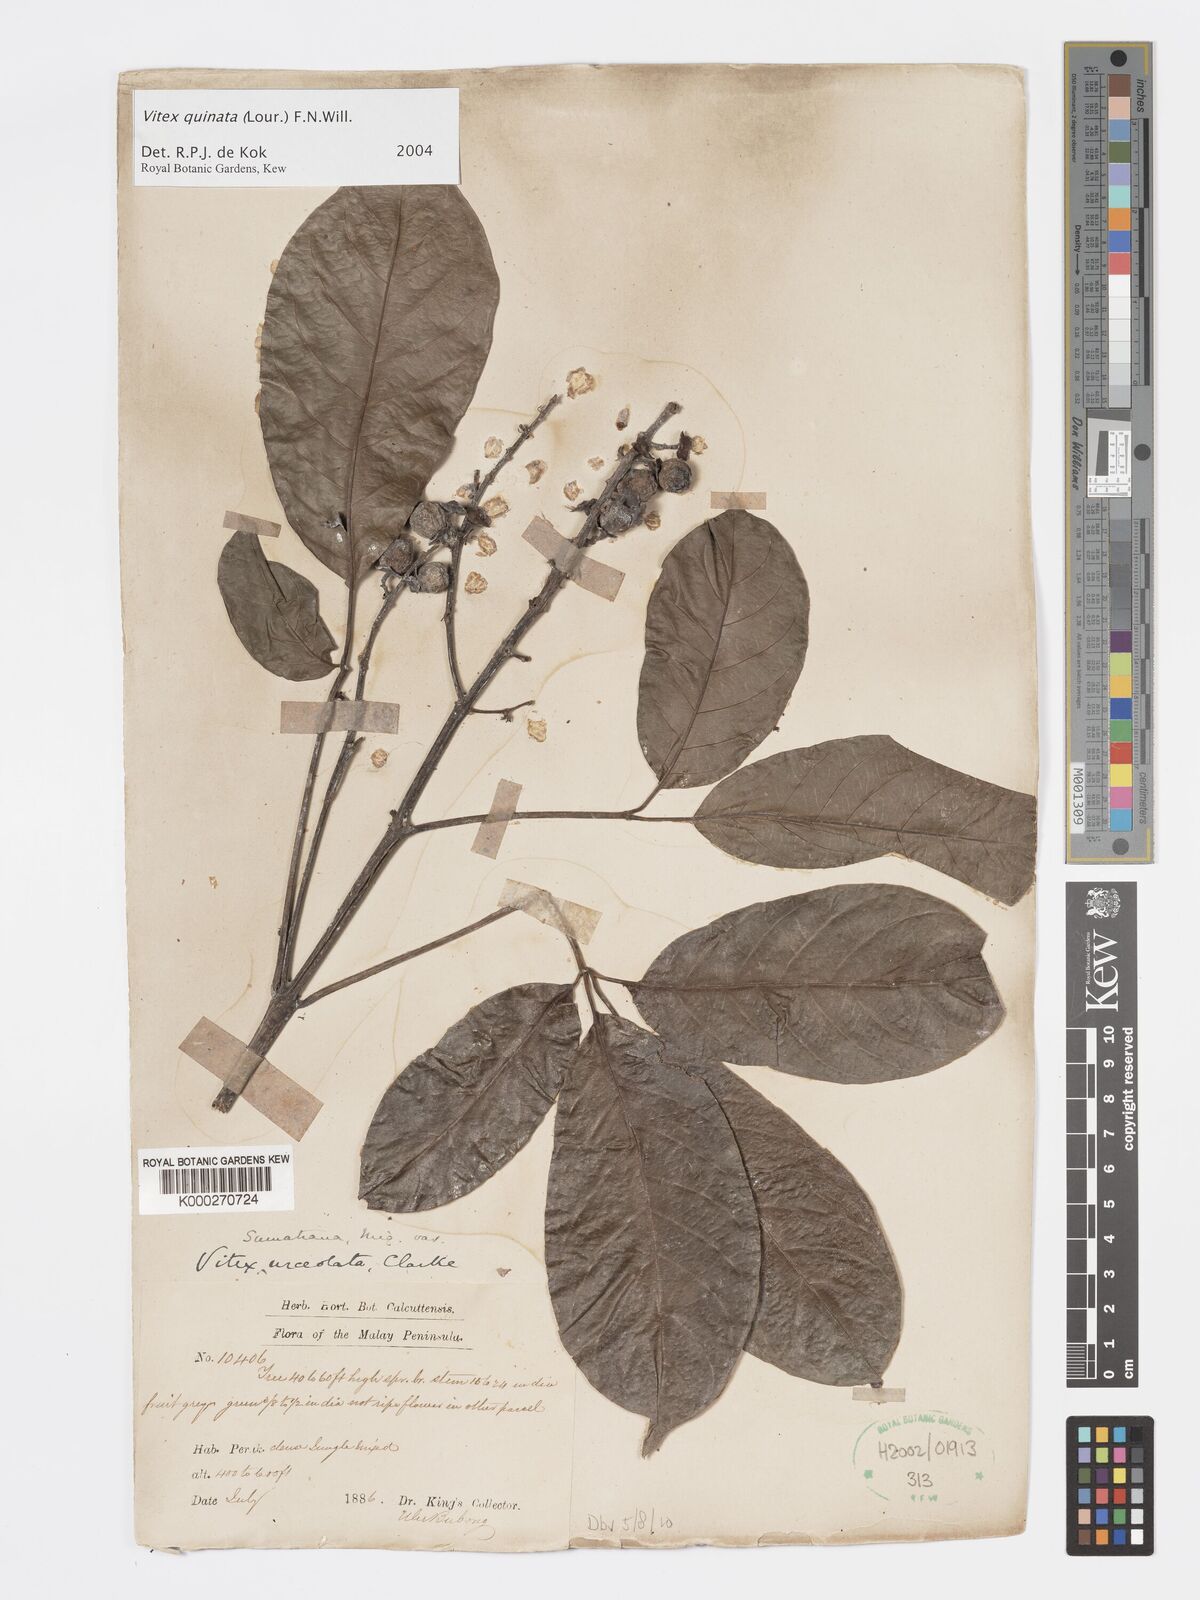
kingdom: Plantae
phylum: Tracheophyta
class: Magnoliopsida
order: Lamiales
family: Lamiaceae
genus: Vitex
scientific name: Vitex quinata
